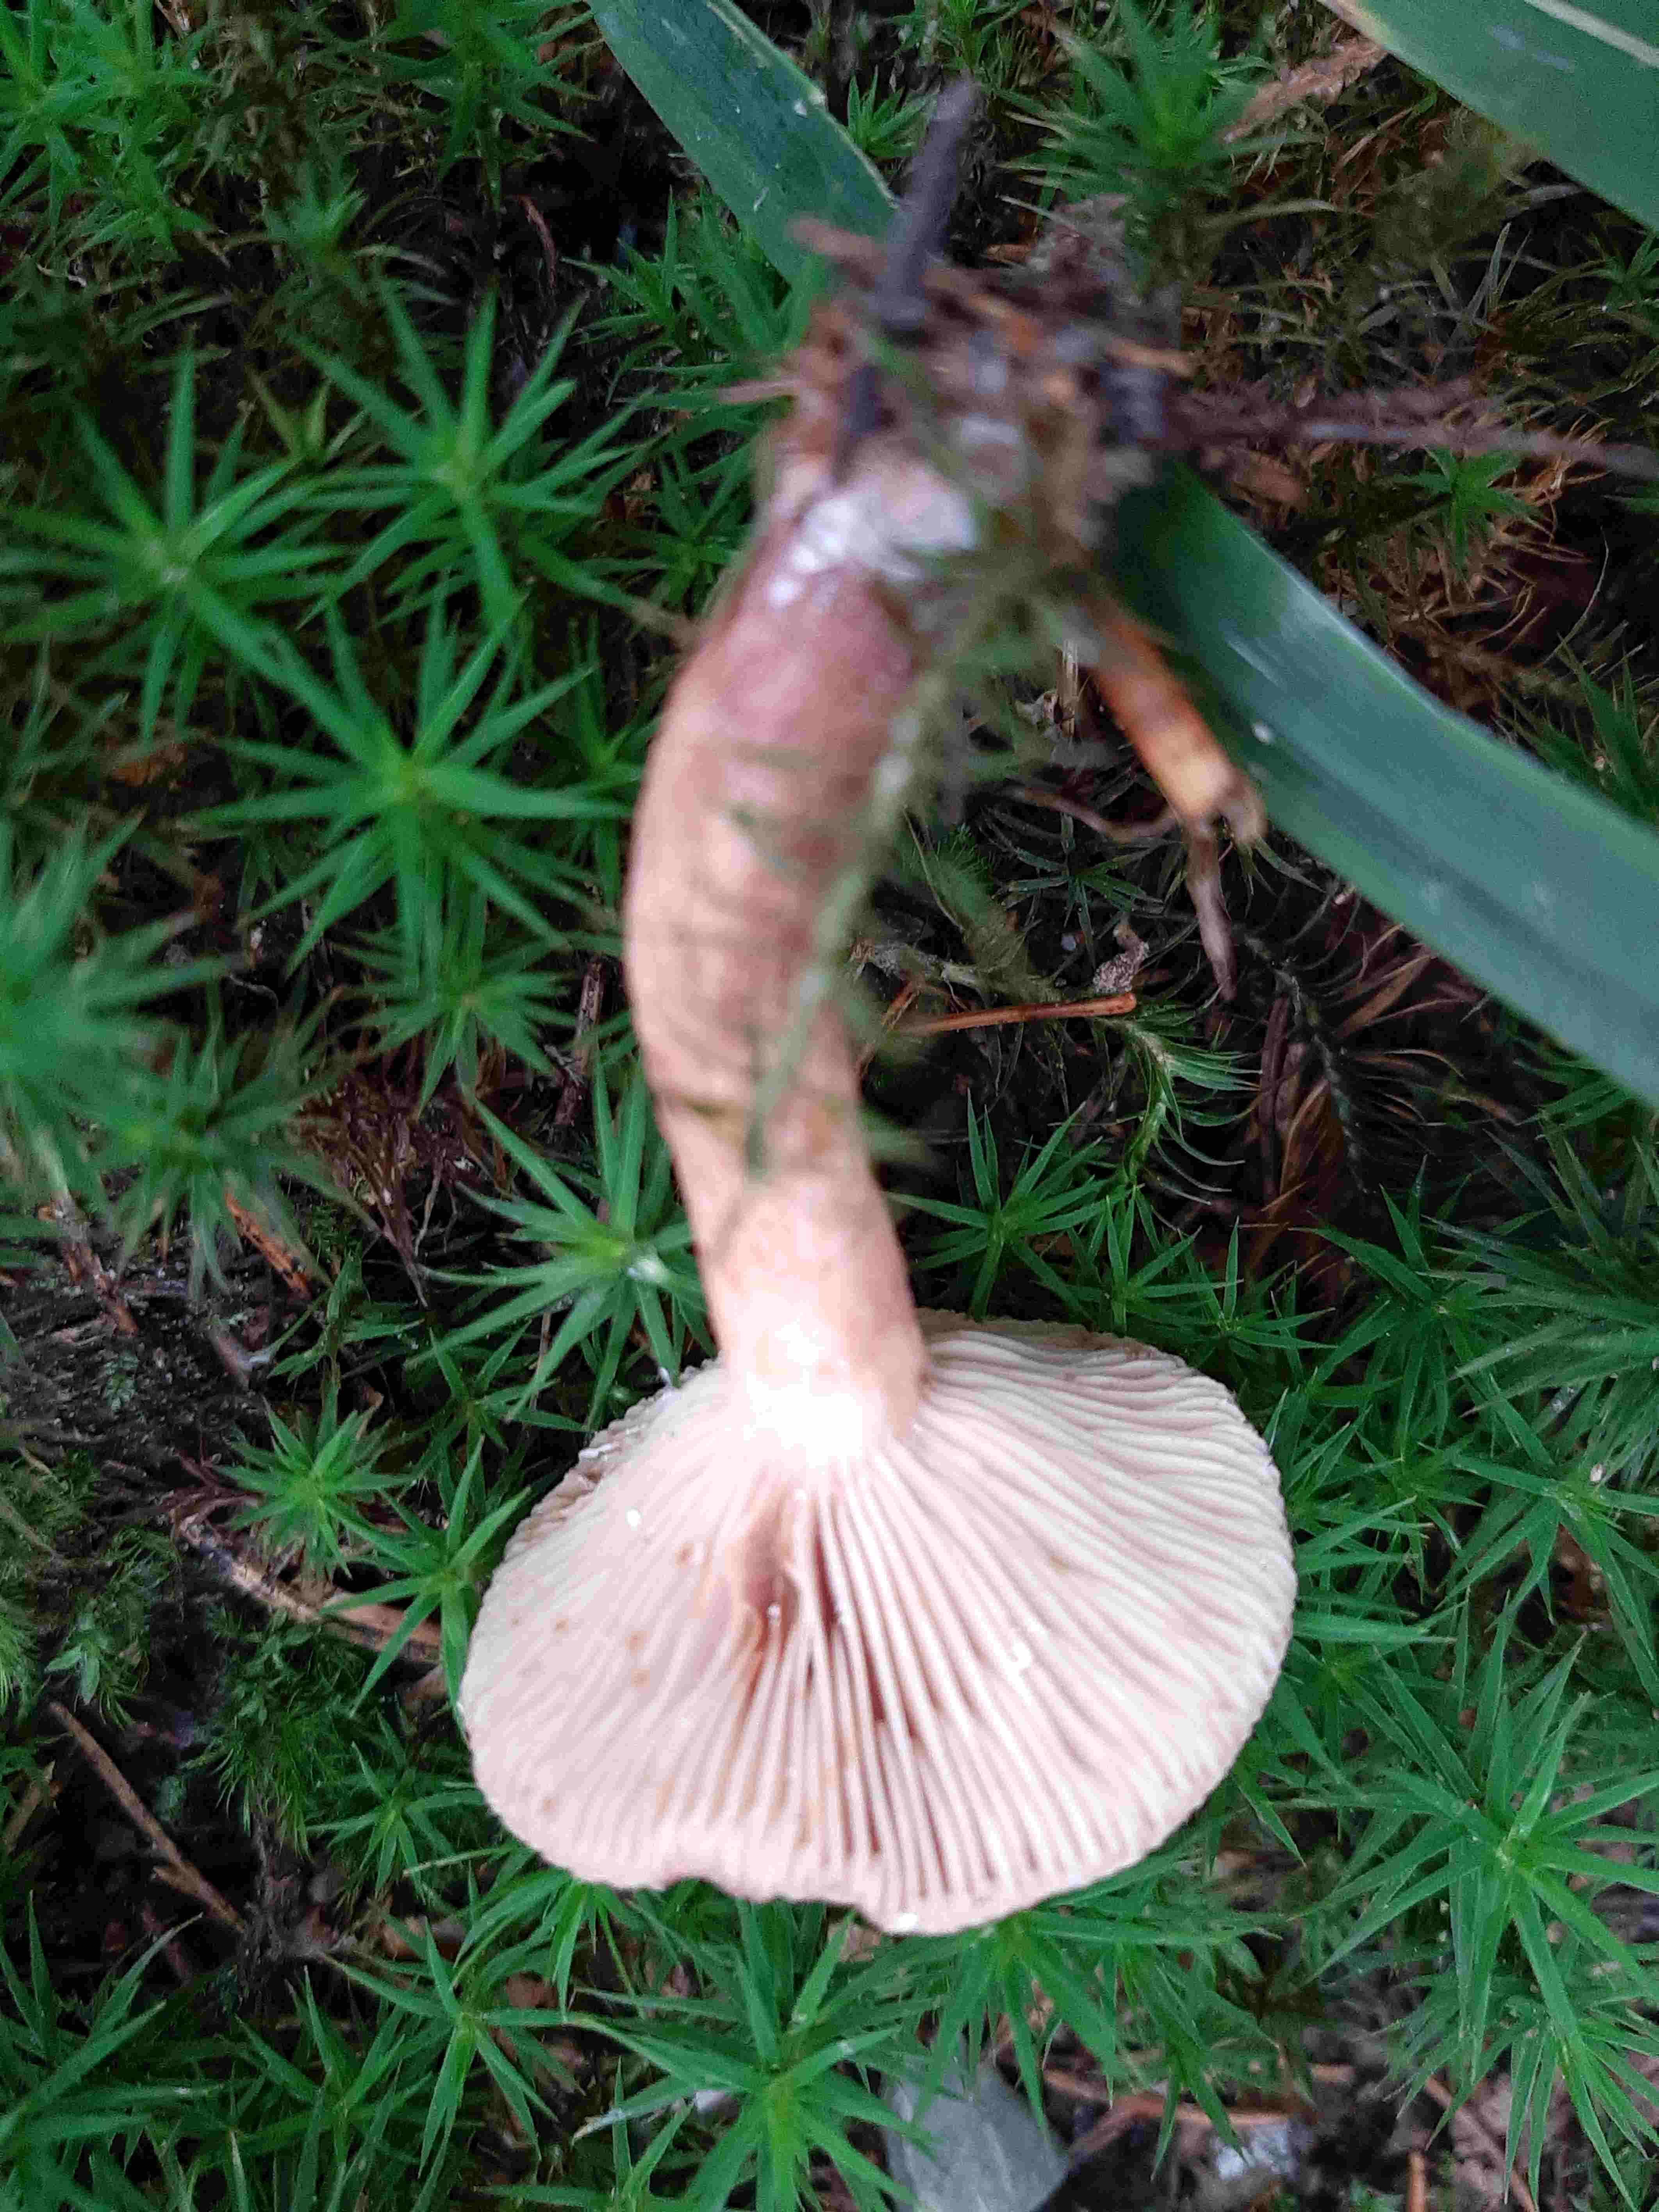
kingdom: Fungi
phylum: Basidiomycota
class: Agaricomycetes
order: Russulales
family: Russulaceae
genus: Lactarius
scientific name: Lactarius camphoratus
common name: kamfer-mælkehat
